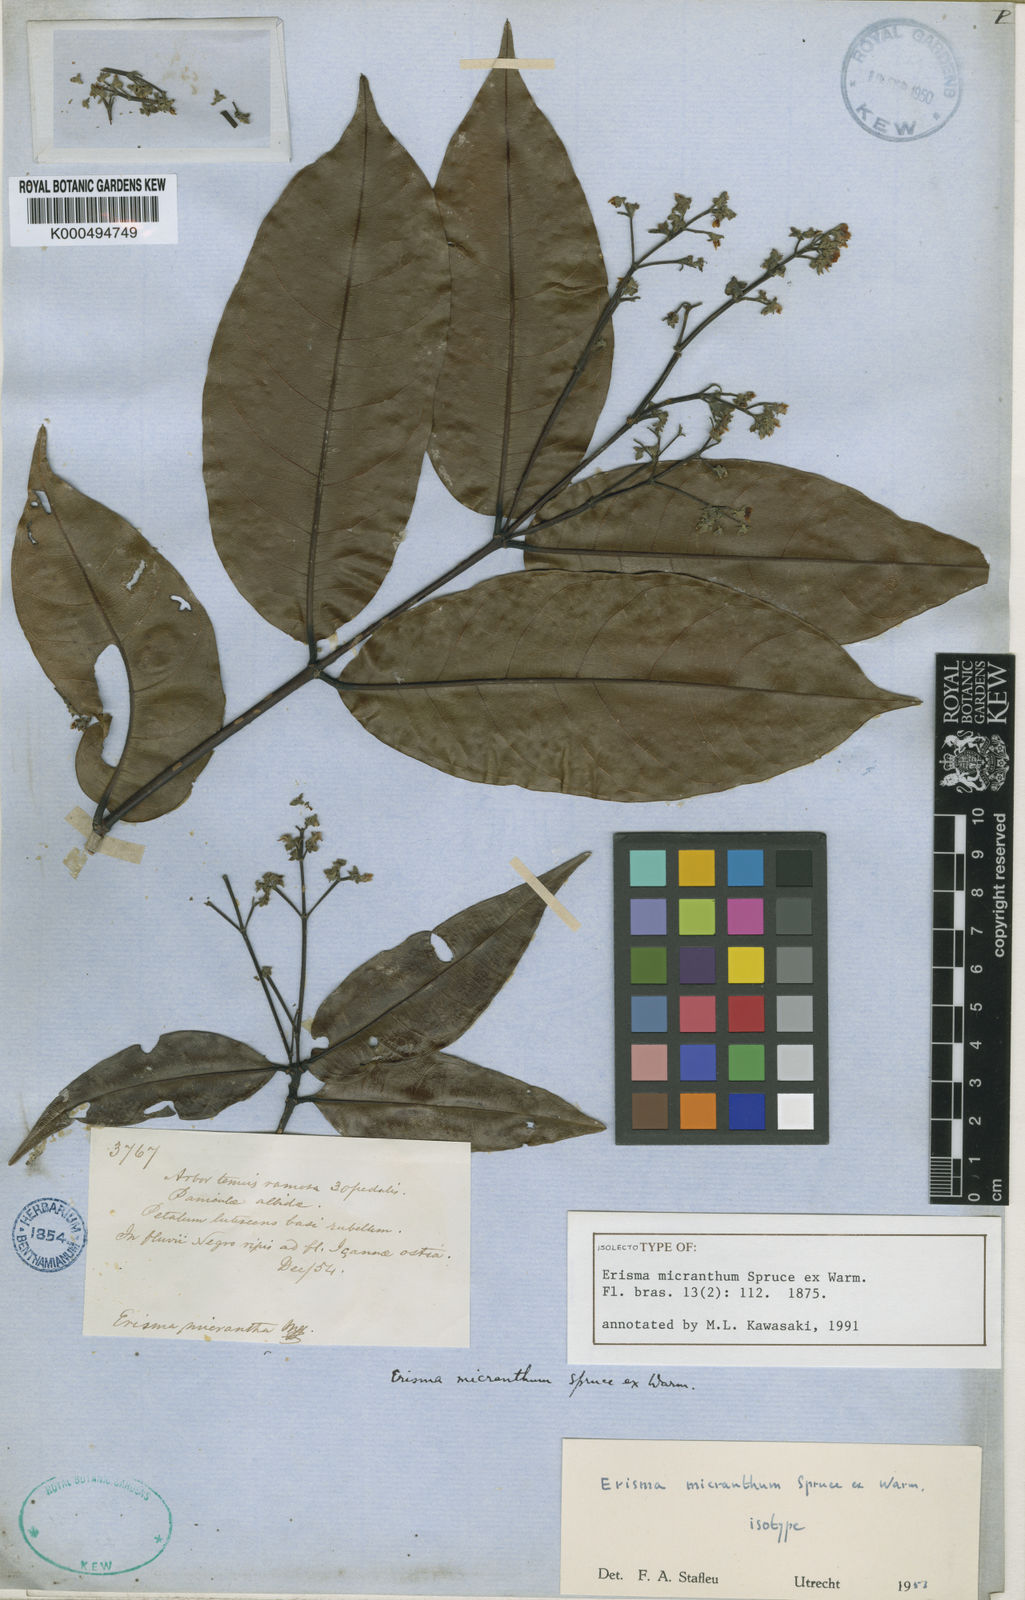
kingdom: Plantae
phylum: Tracheophyta
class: Magnoliopsida
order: Myrtales
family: Vochysiaceae
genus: Erisma
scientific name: Erisma micranthum
